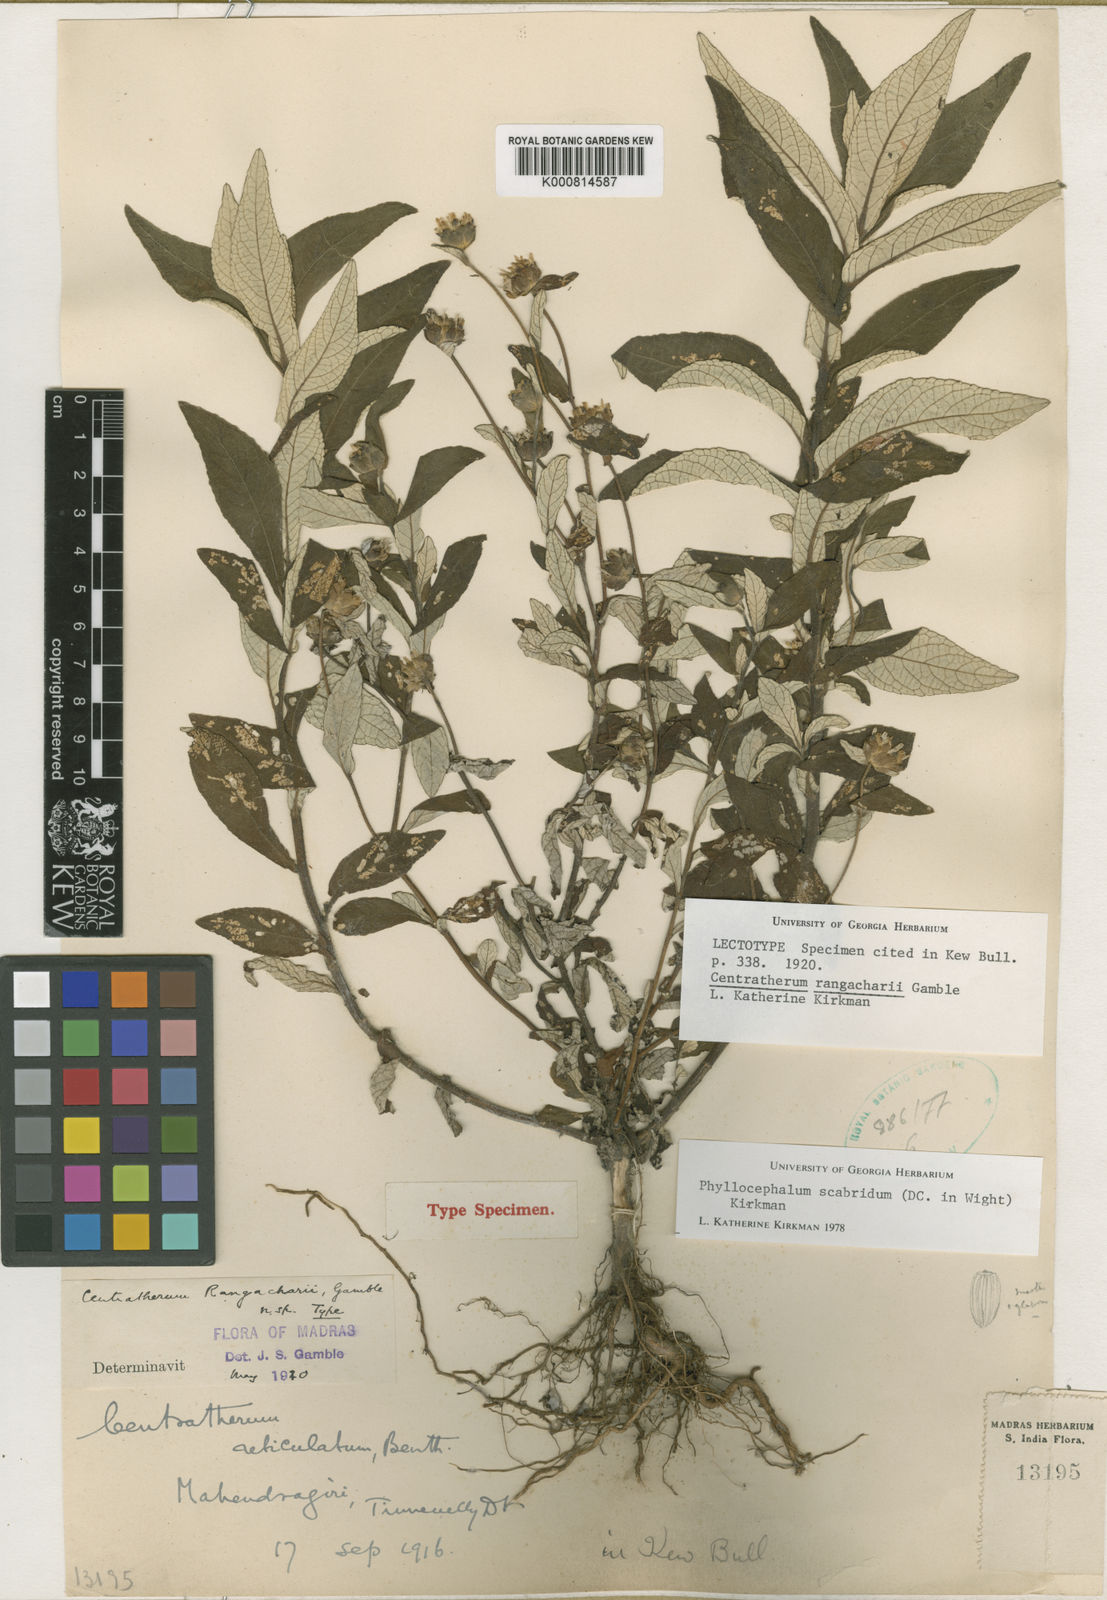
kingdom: Plantae
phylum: Tracheophyta
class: Magnoliopsida
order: Asterales
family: Asteraceae
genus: Phyllocephalum
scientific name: Phyllocephalum scabridum
